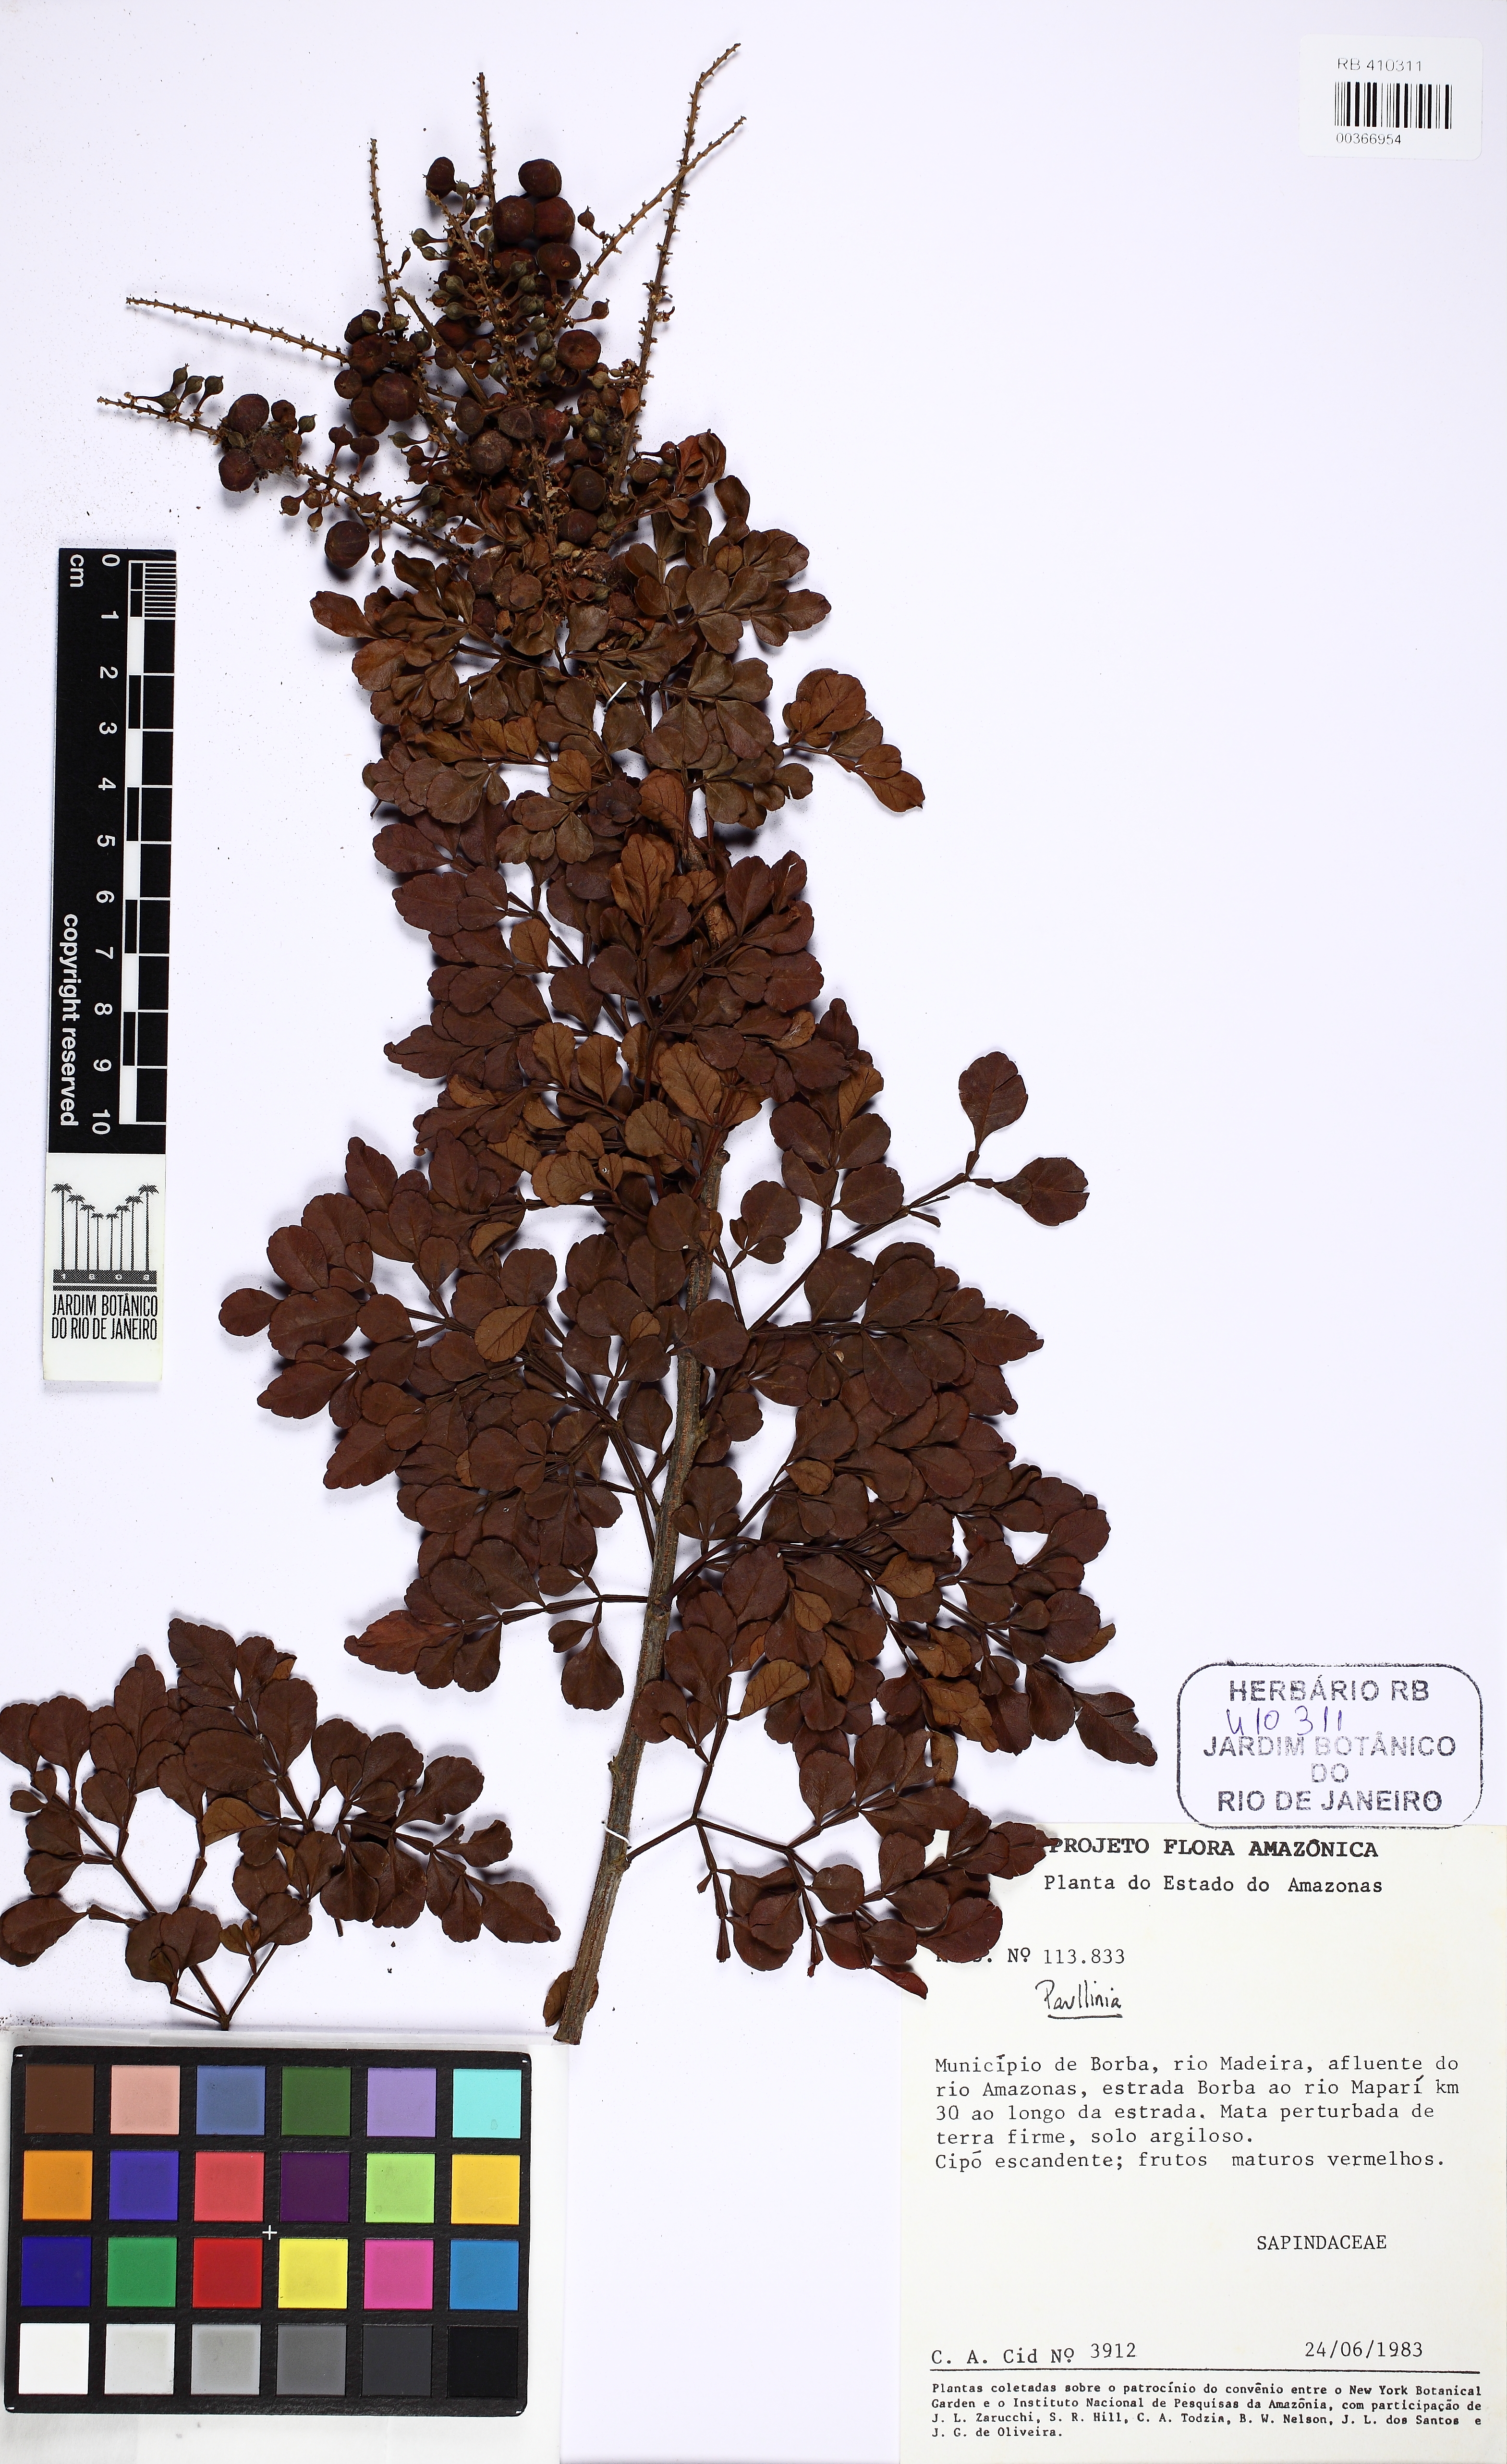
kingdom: Plantae
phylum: Tracheophyta
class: Magnoliopsida
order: Sapindales
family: Sapindaceae
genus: Paullinia
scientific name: Paullinia
